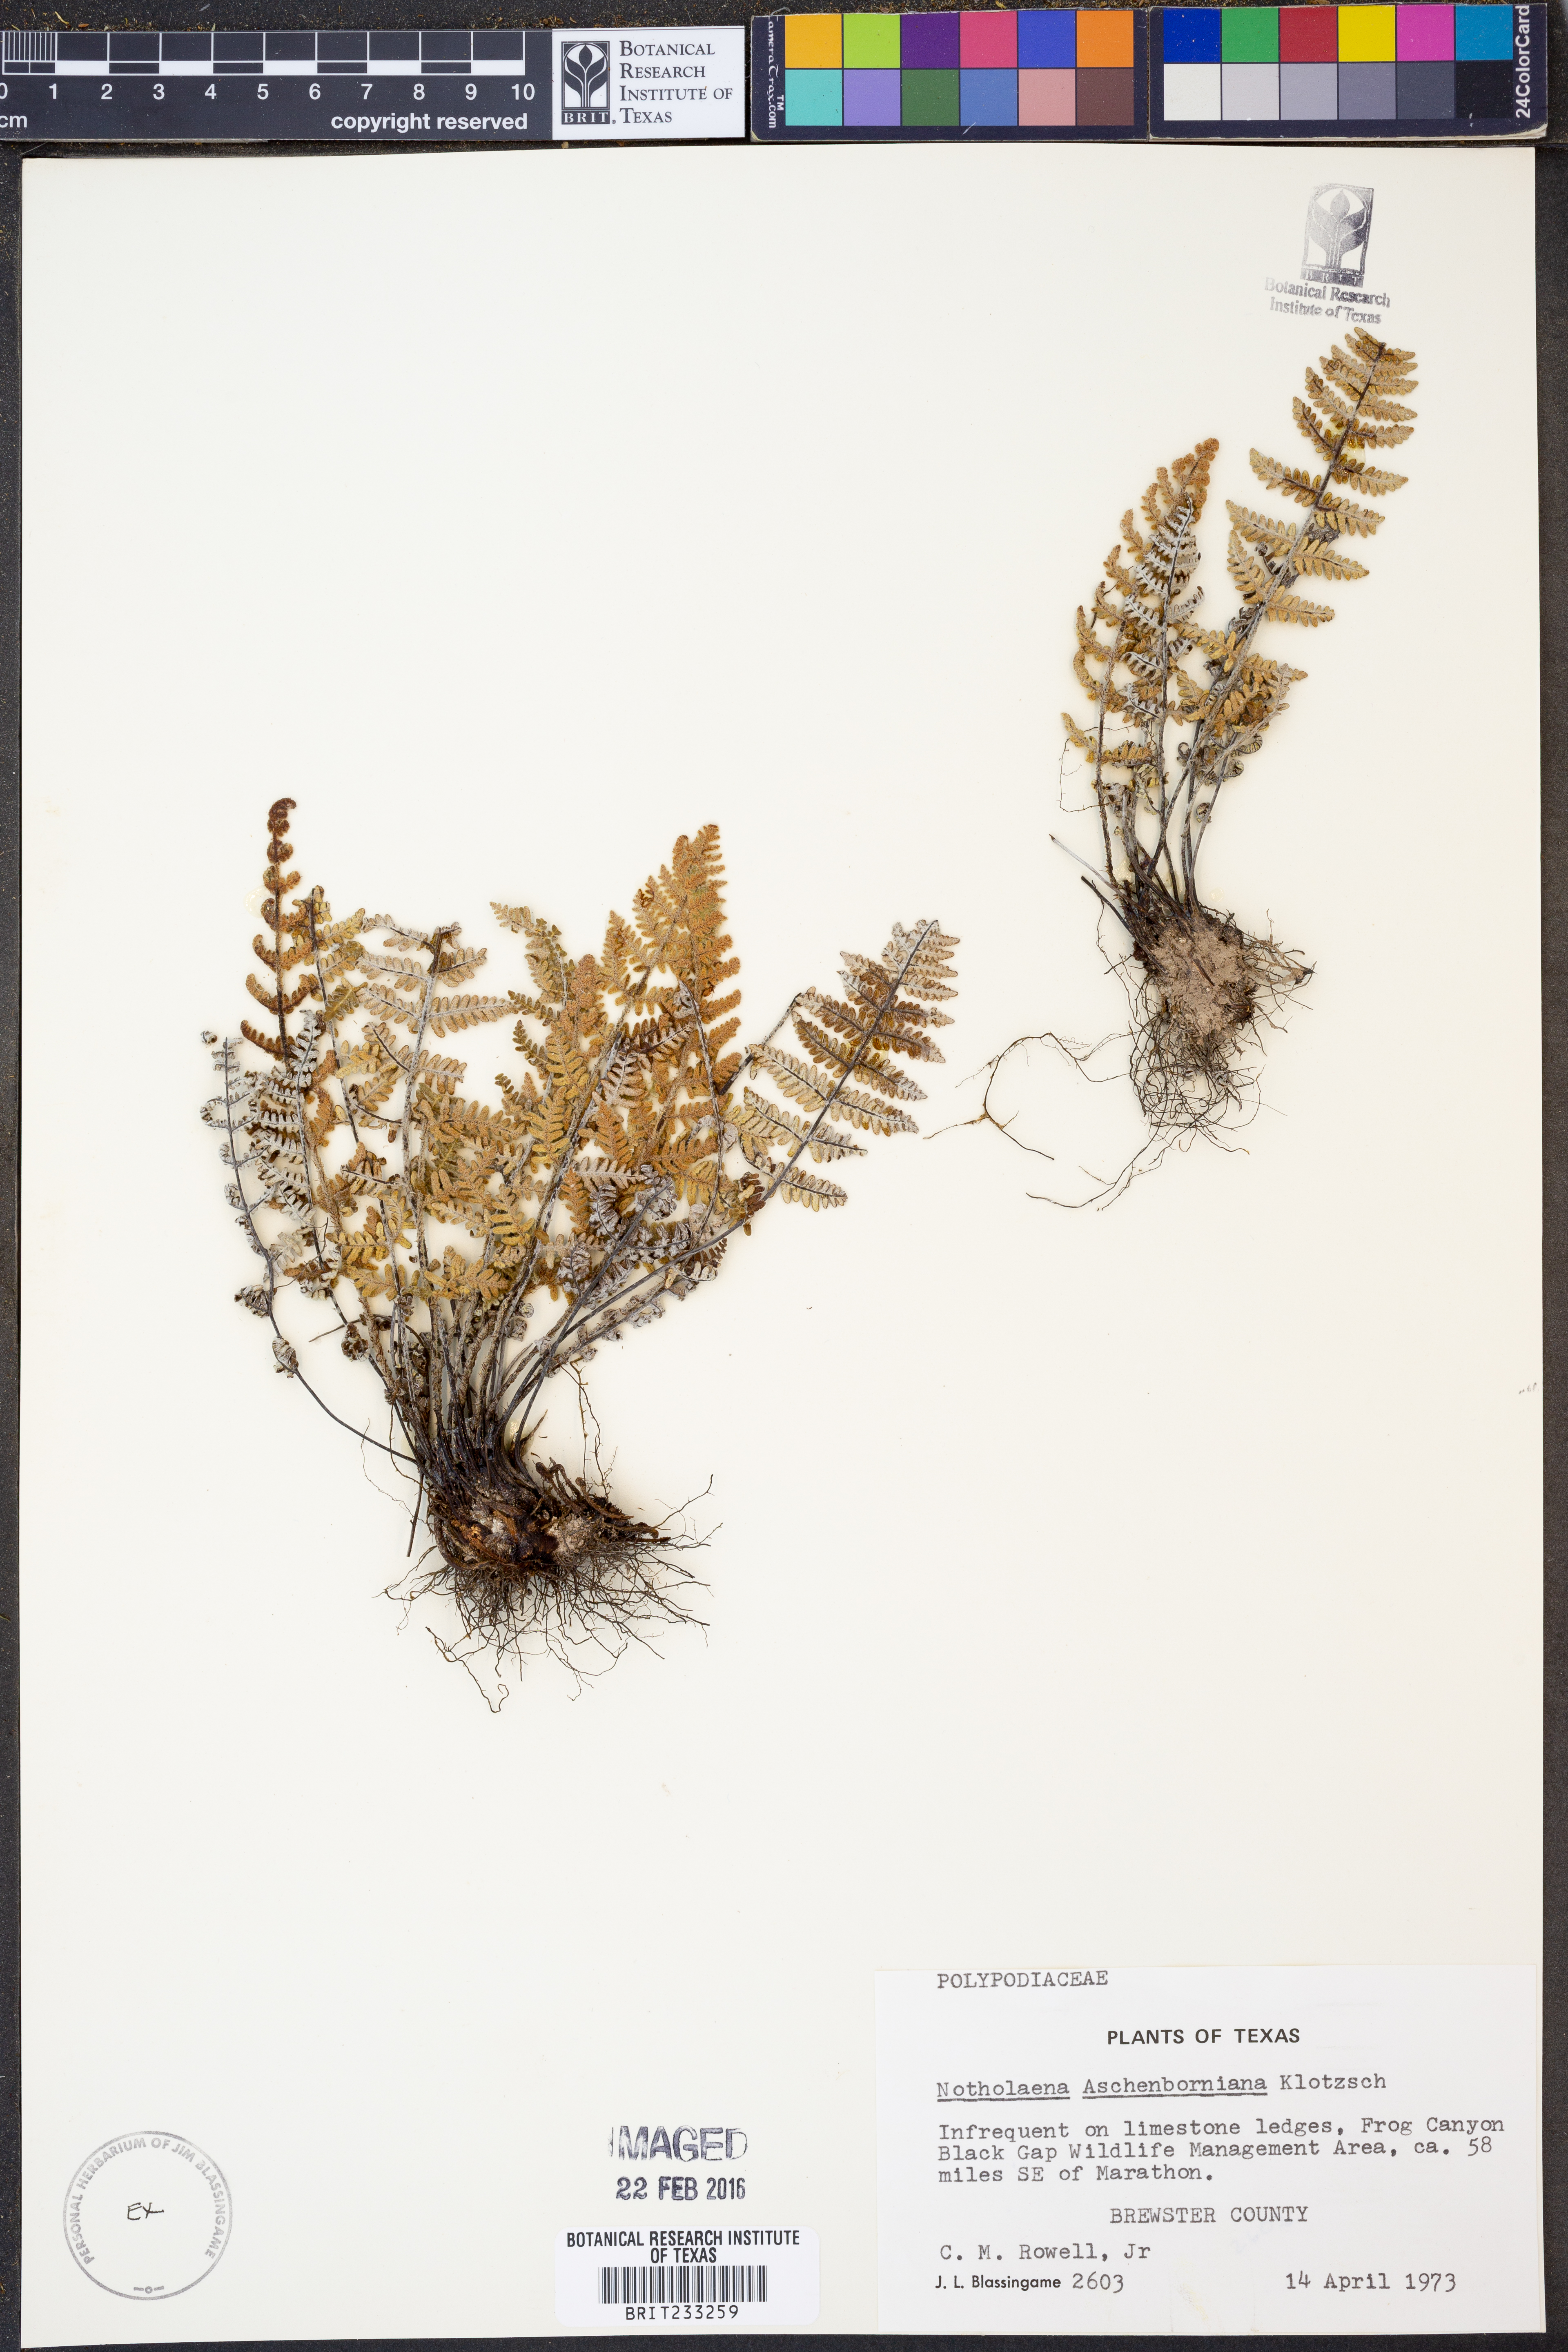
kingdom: Plantae
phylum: Tracheophyta
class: Polypodiopsida
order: Polypodiales
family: Pteridaceae
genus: Notholaena
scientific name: Notholaena aschenborniana
